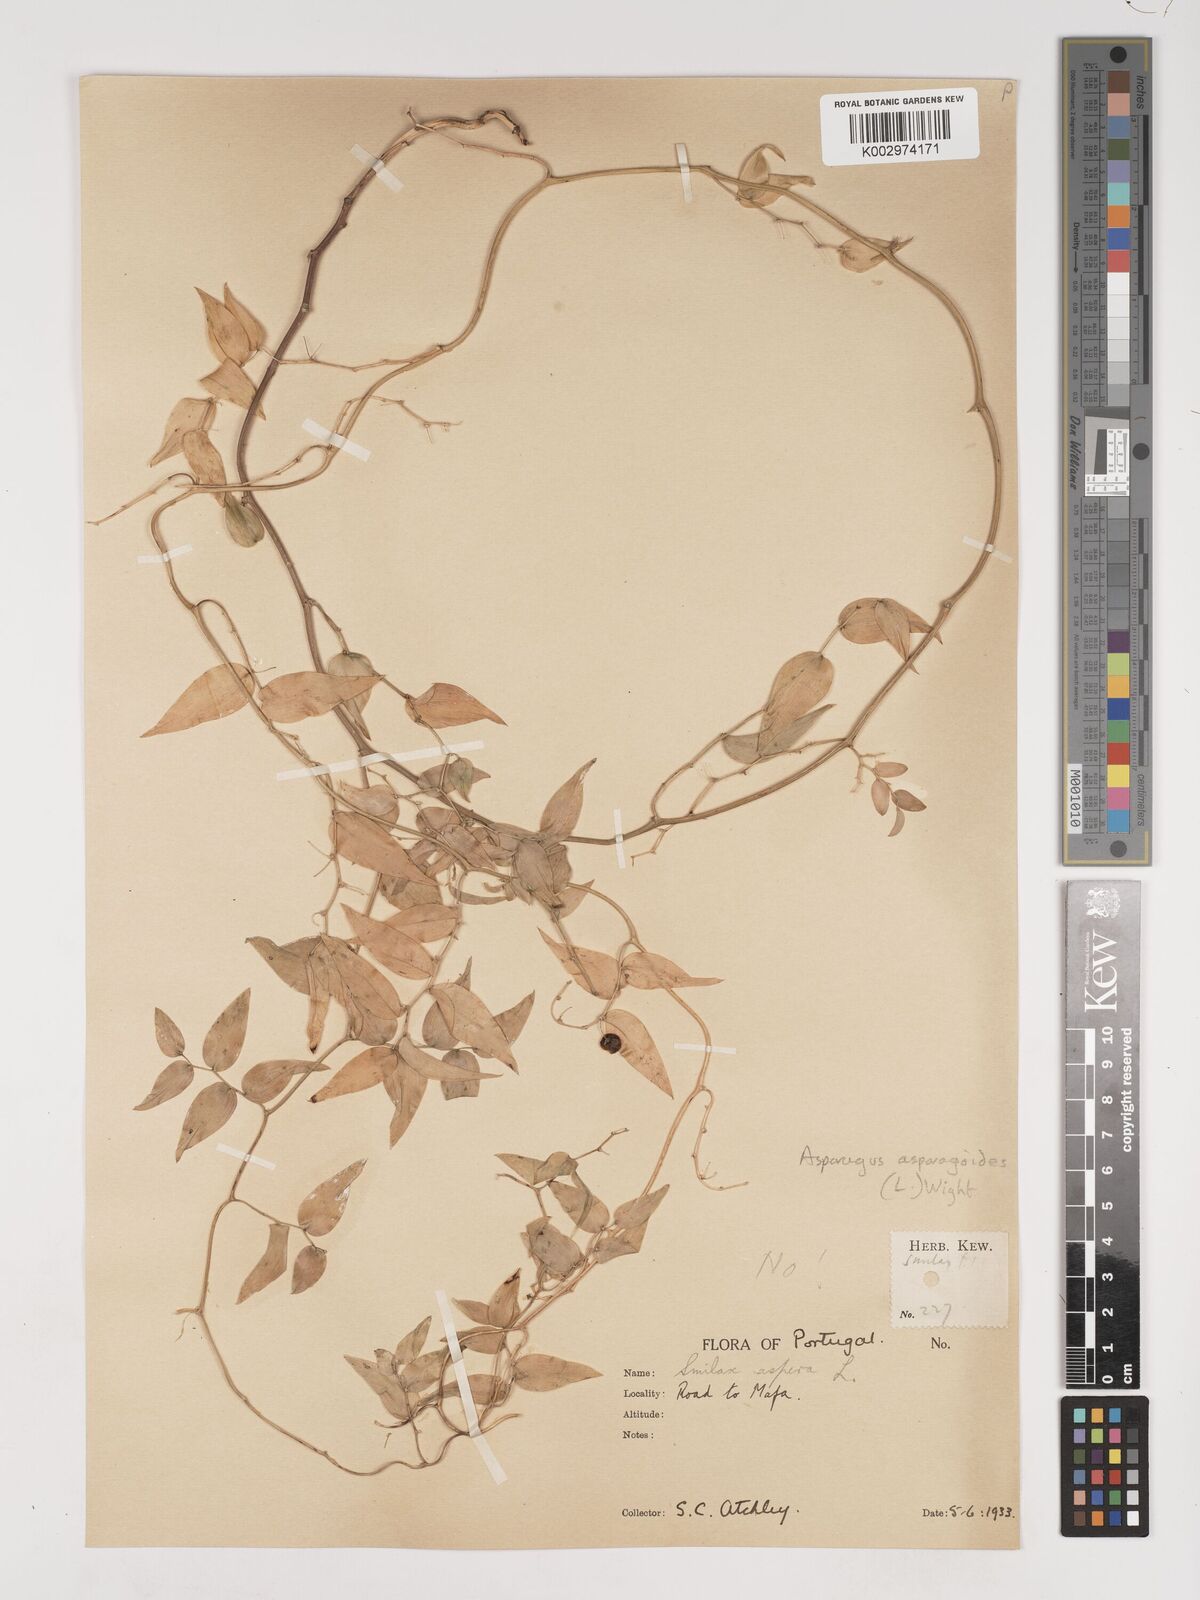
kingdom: Plantae
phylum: Tracheophyta
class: Liliopsida
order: Asparagales
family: Asparagaceae
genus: Asparagus
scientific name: Asparagus asparagoides
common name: African asparagus fern
